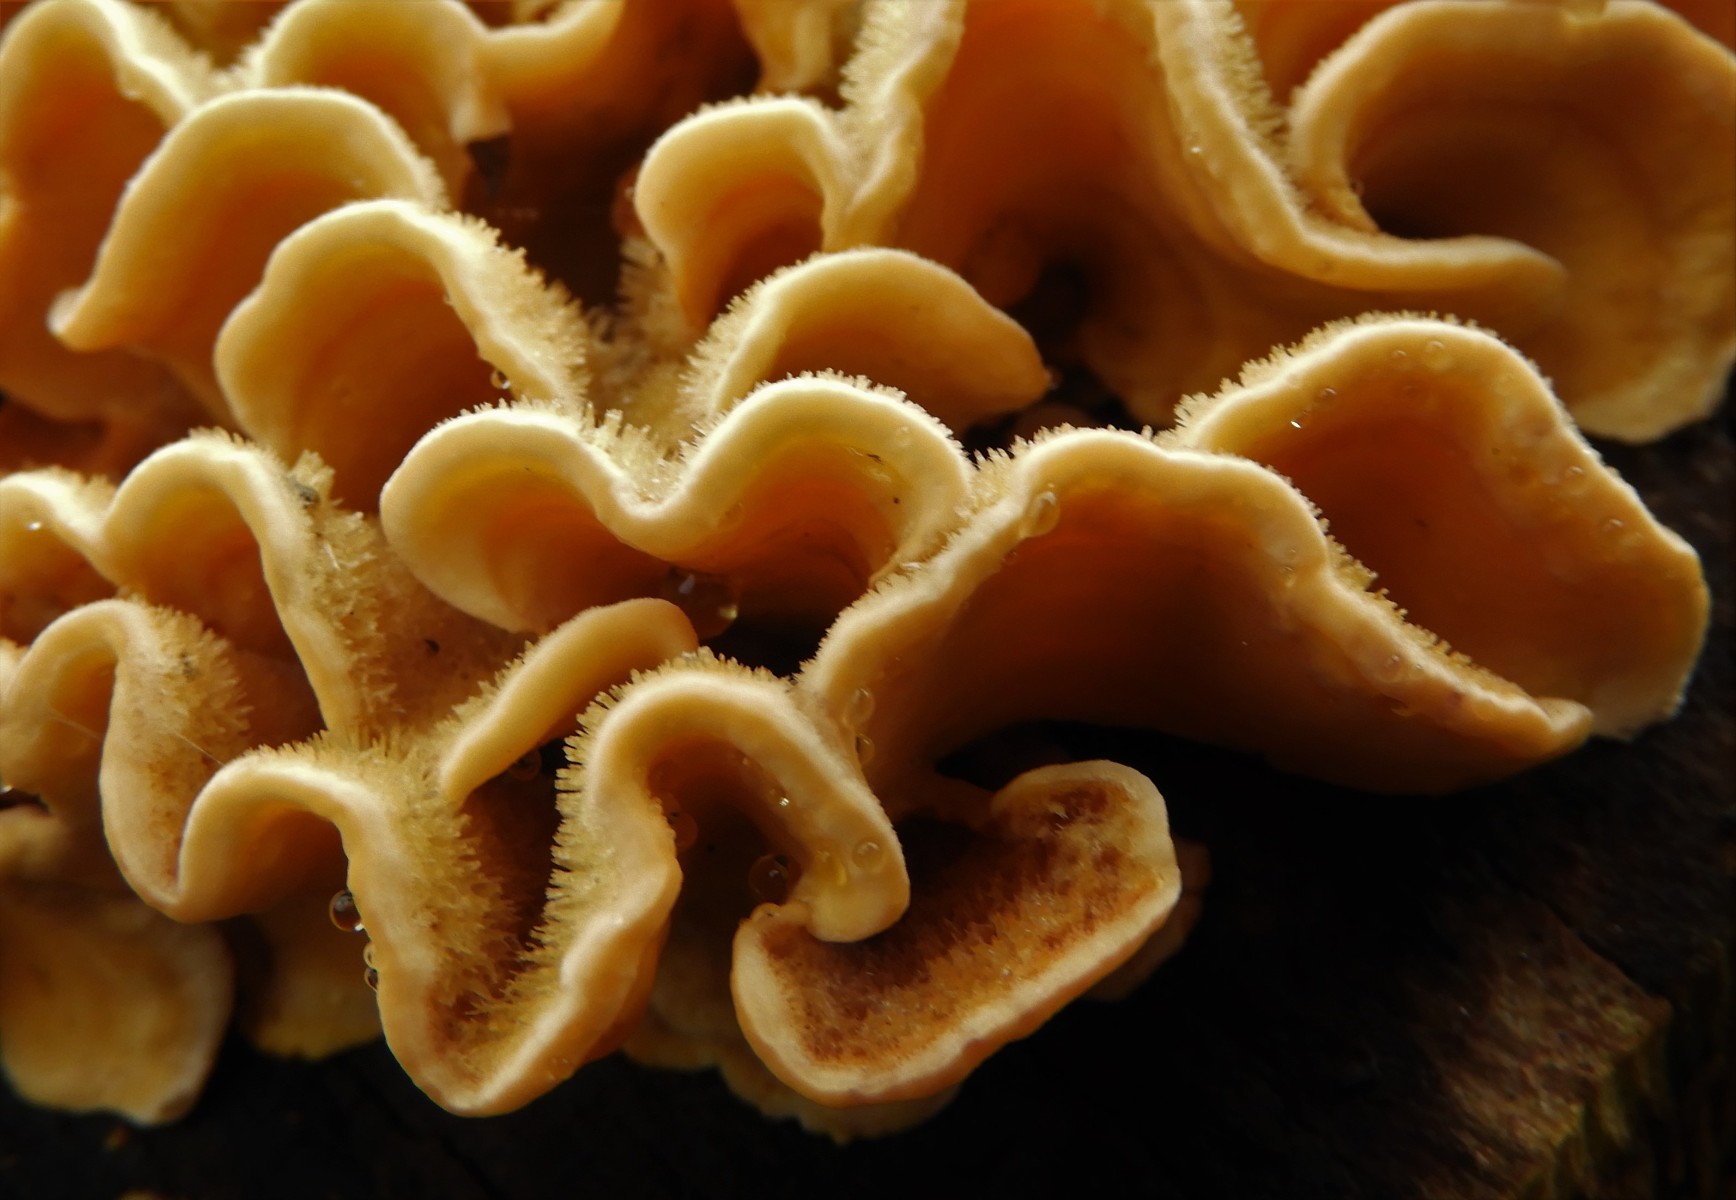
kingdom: Fungi
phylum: Basidiomycota
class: Agaricomycetes
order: Russulales
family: Stereaceae
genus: Stereum
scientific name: Stereum hirsutum
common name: håret lædersvamp
